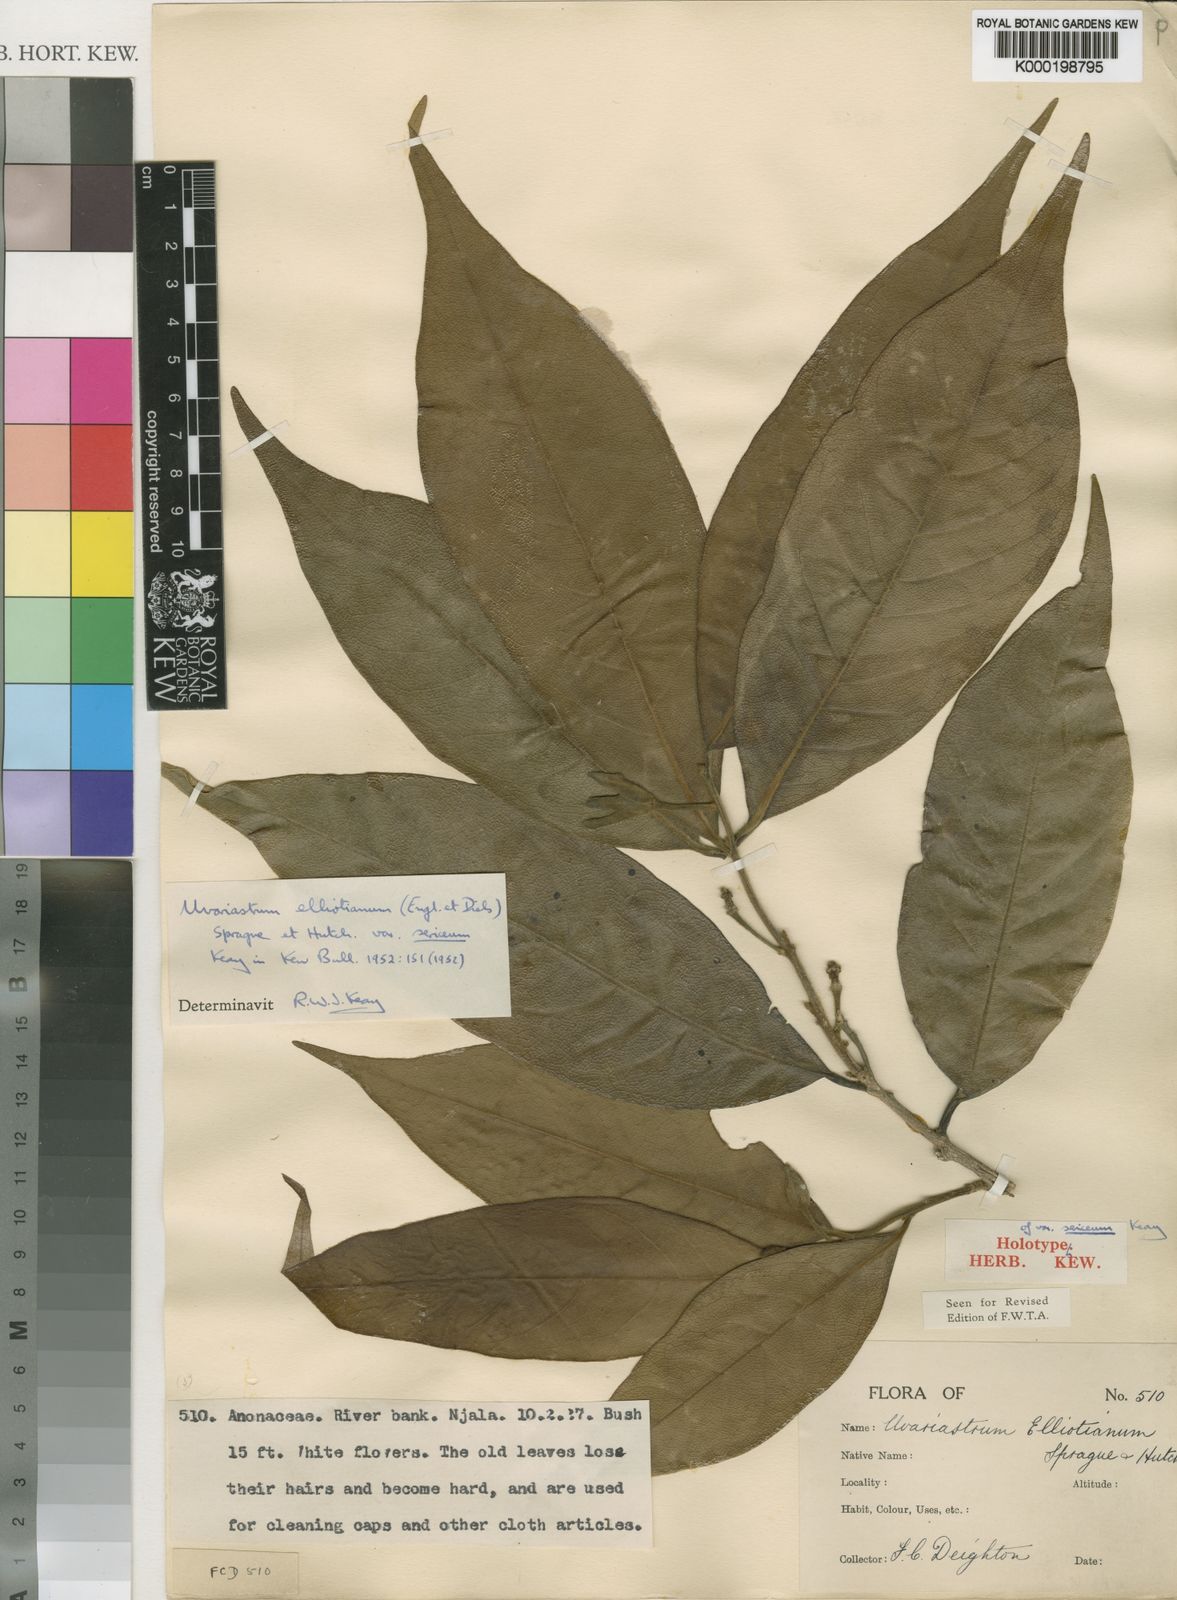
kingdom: Plantae
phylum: Tracheophyta
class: Magnoliopsida
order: Magnoliales
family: Annonaceae
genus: Mischogyne
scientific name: Mischogyne elliotianum
